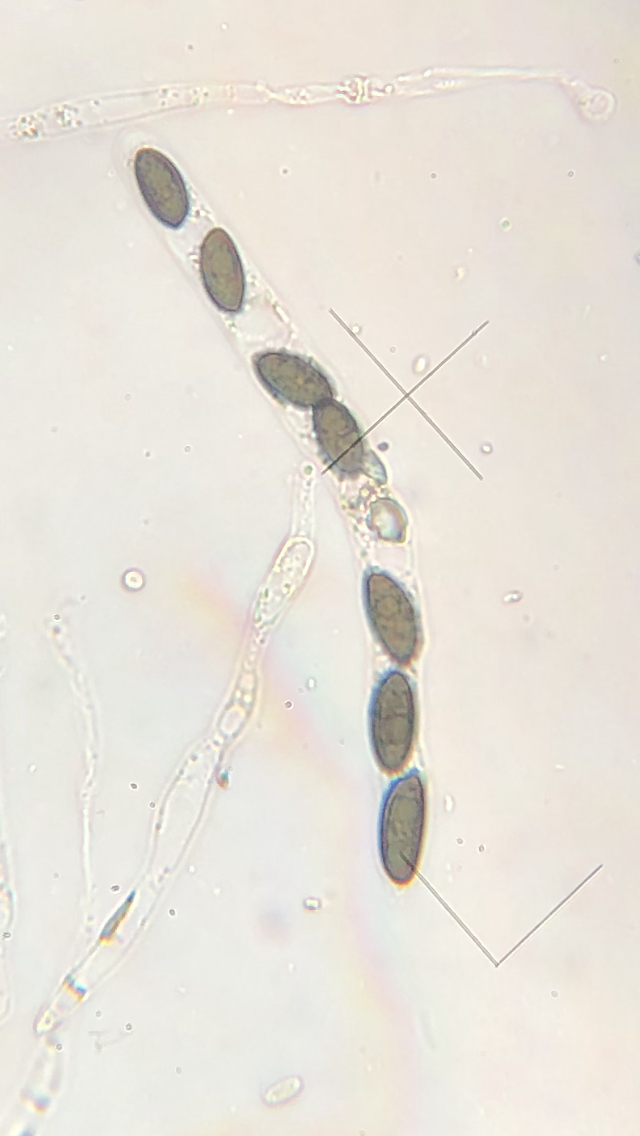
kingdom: Fungi
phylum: Ascomycota
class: Sordariomycetes
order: Xylariales
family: Xylariaceae
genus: Nemania
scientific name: Nemania confluens
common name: indsænket kuldyne
